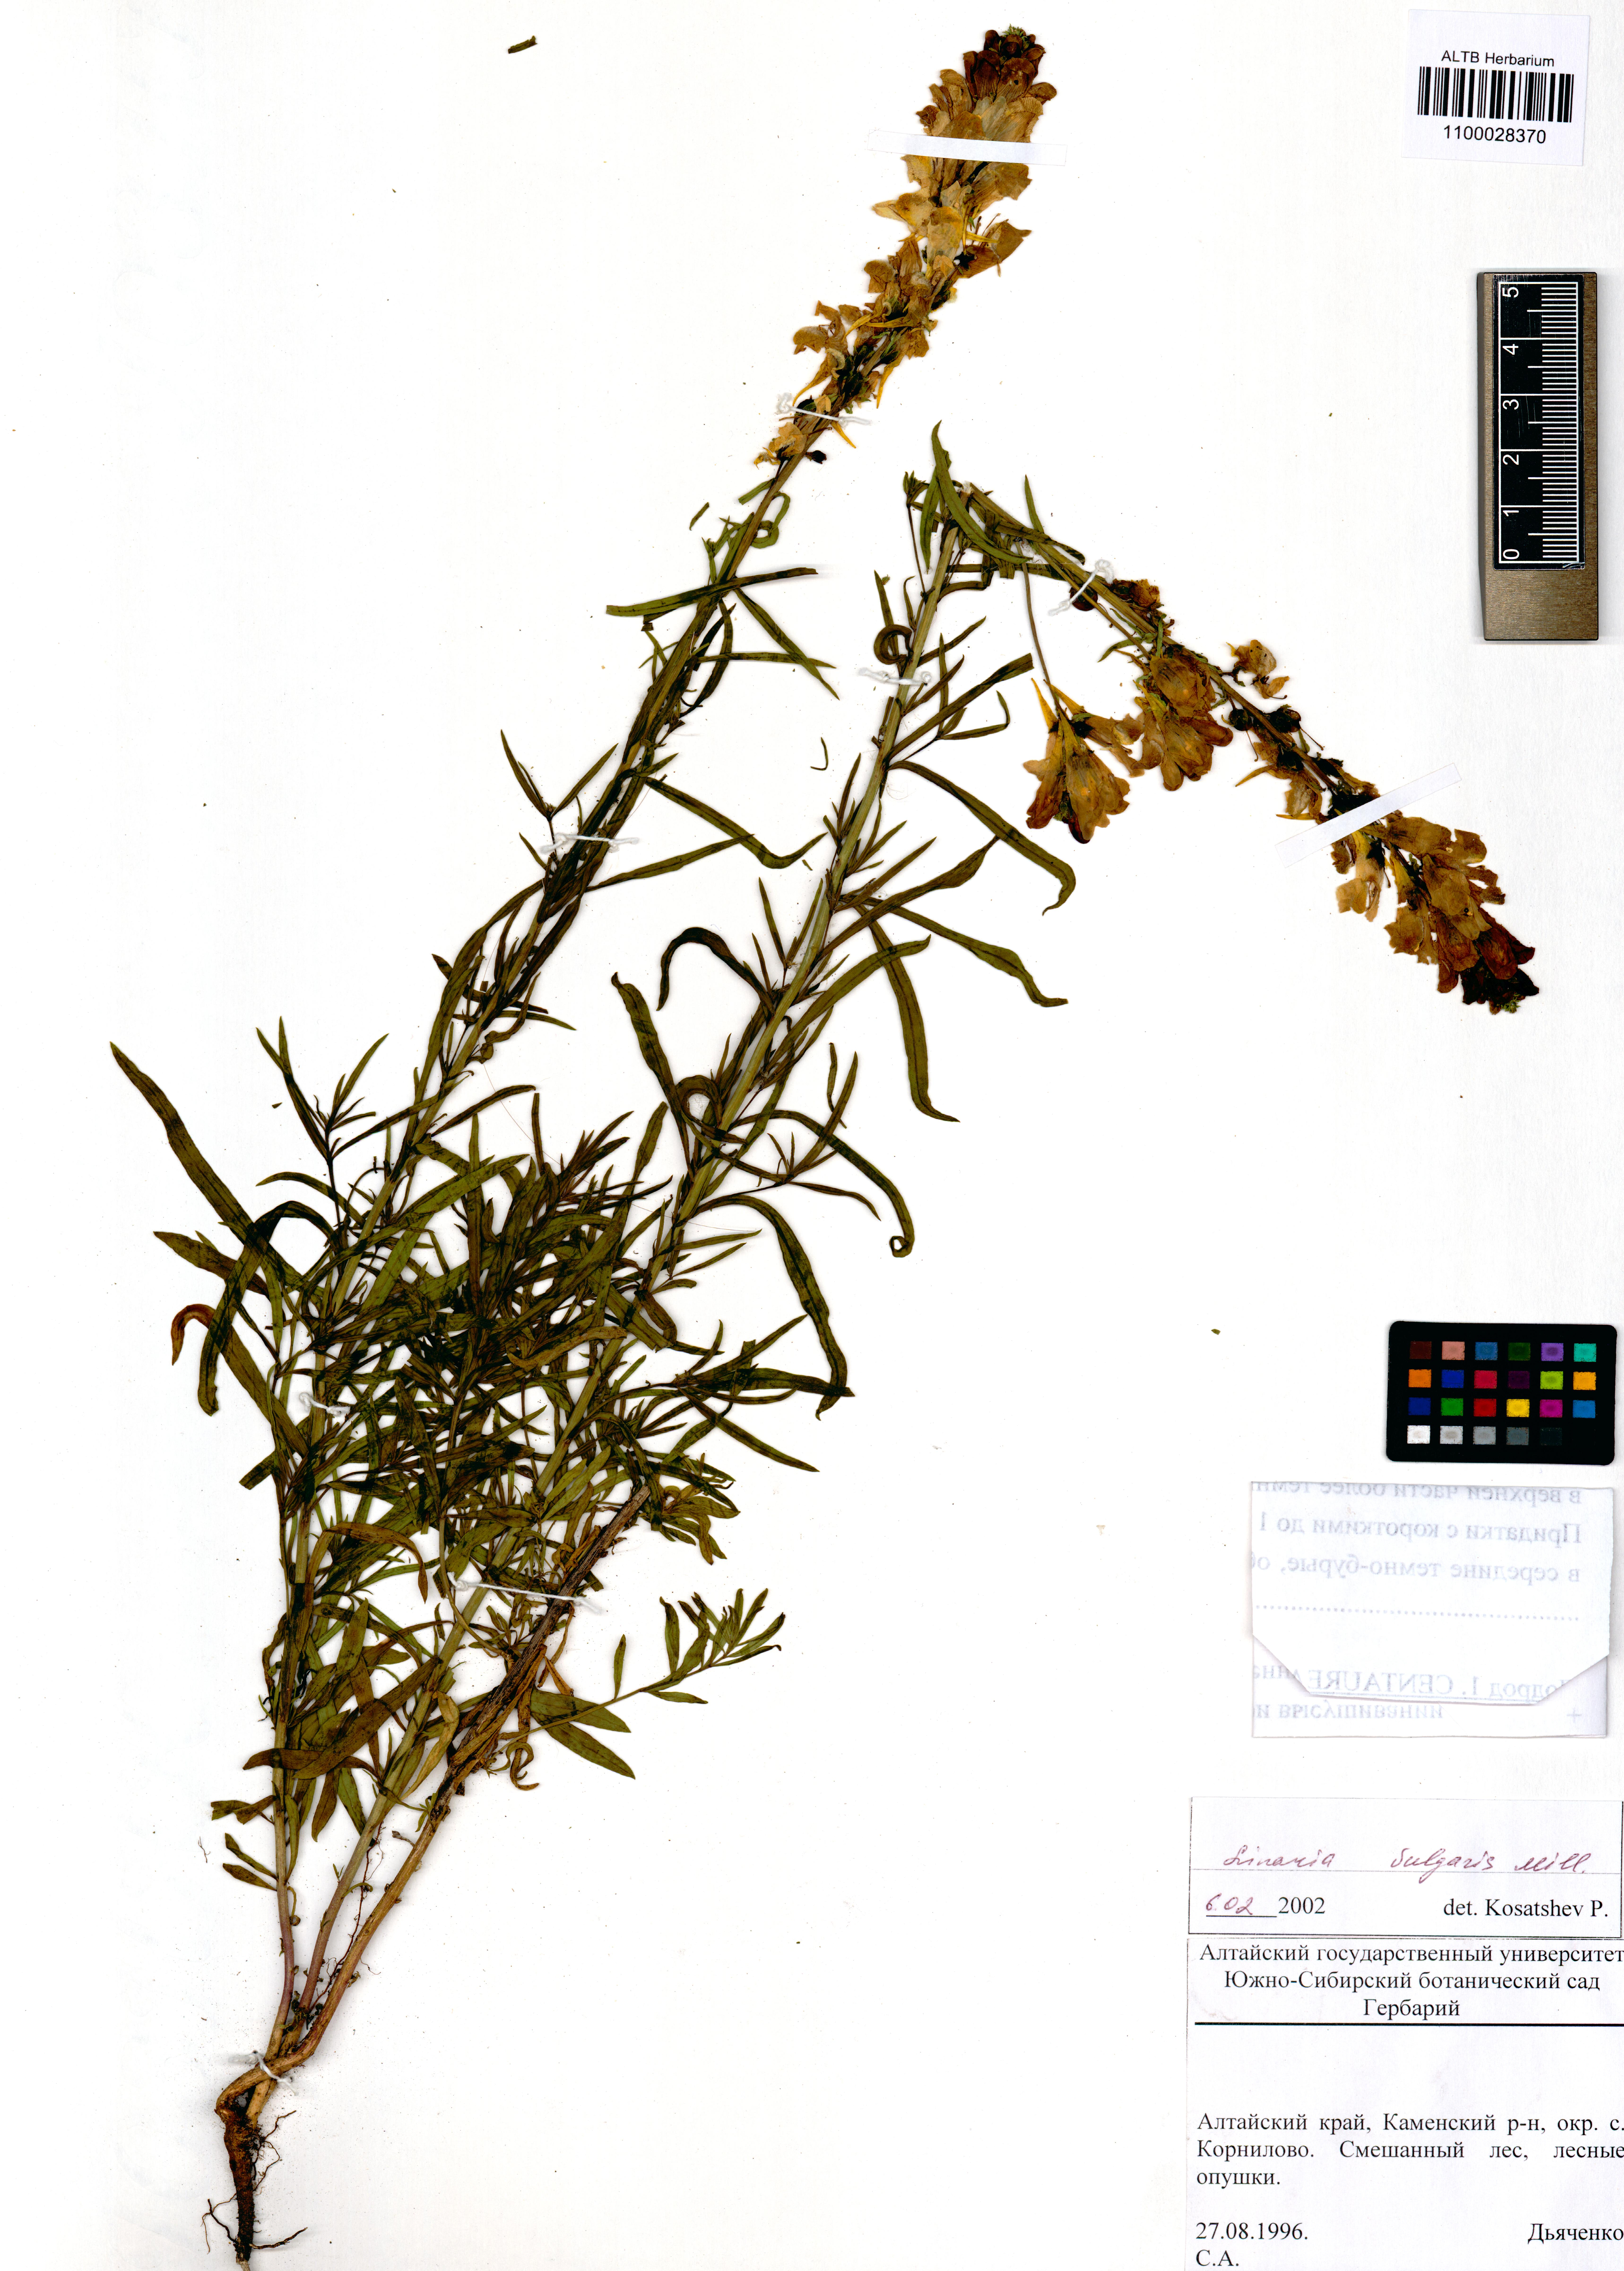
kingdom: Plantae
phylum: Tracheophyta
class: Magnoliopsida
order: Lamiales
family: Plantaginaceae
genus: Linaria
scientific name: Linaria vulgaris
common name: Butter and eggs
